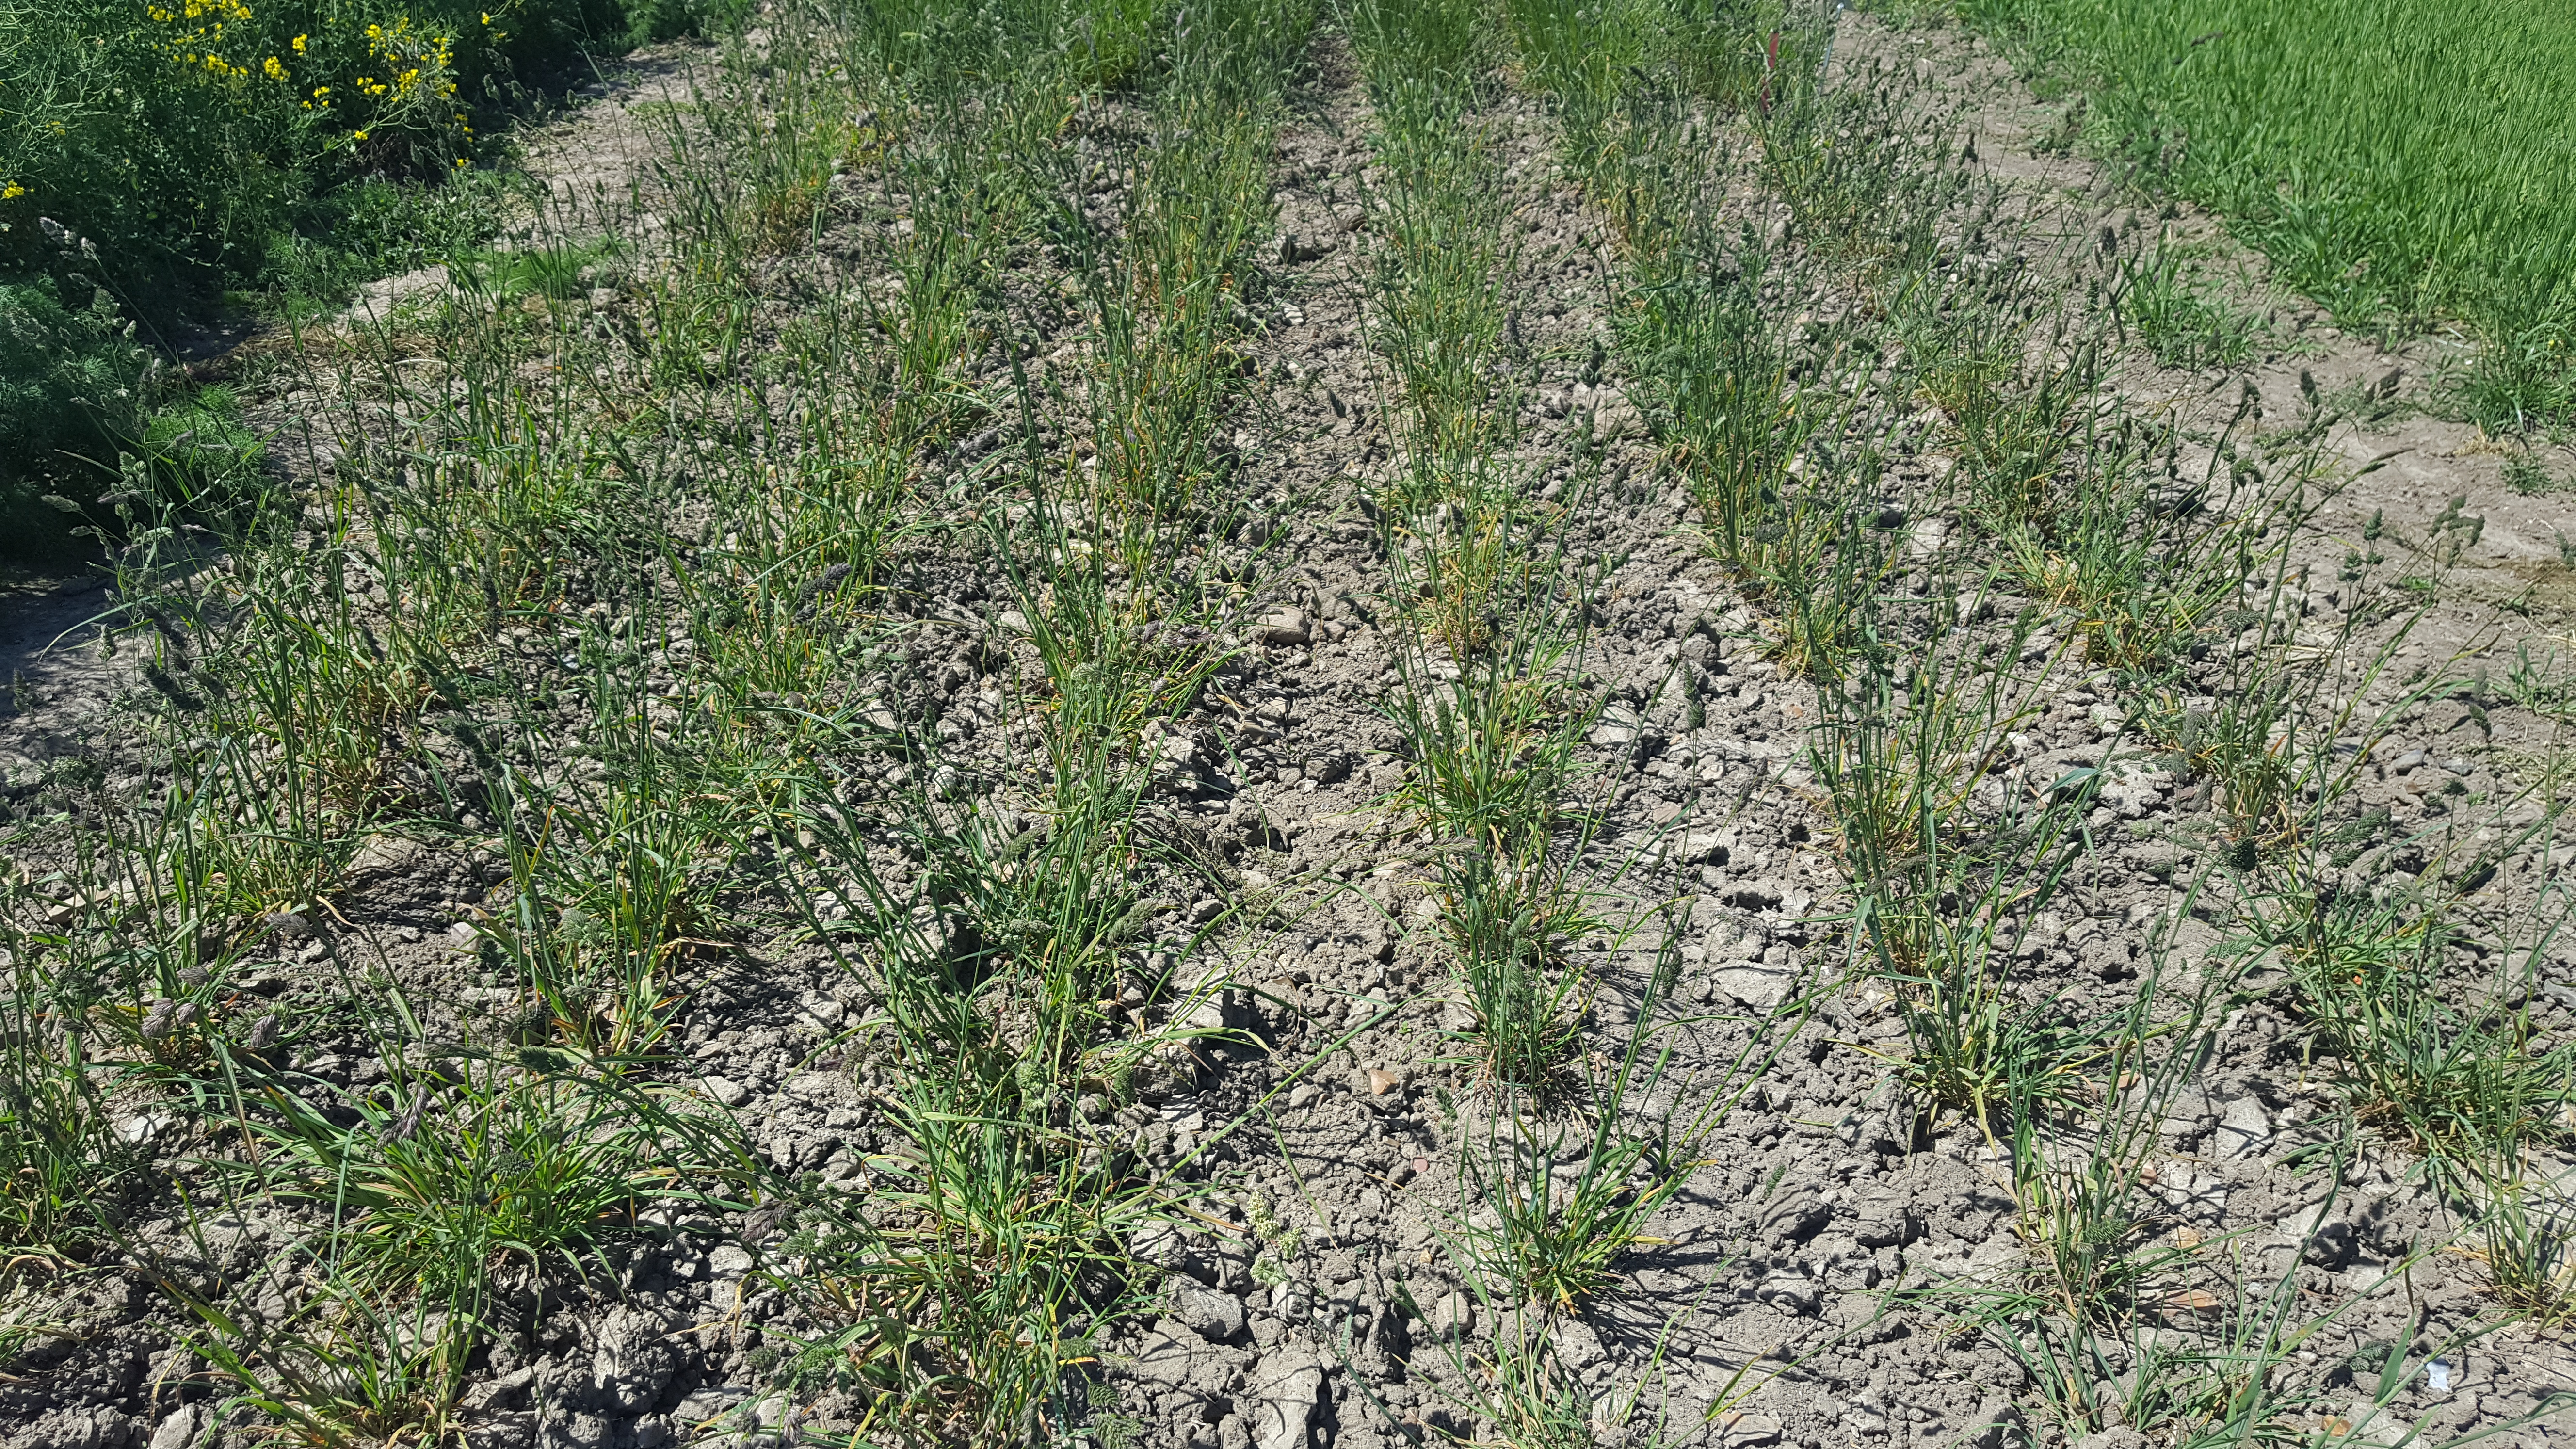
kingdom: Plantae
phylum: Tracheophyta
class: Liliopsida
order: Poales
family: Poaceae
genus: Dactylis
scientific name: Dactylis glomerata
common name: Orchardgrass
